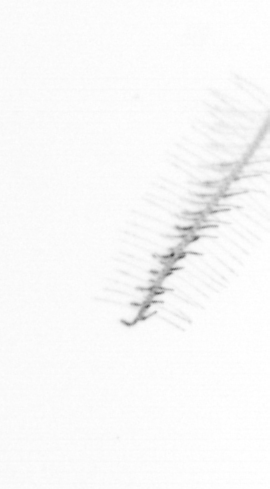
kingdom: Chromista
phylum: Ochrophyta
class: Bacillariophyceae
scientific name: Bacillariophyceae
